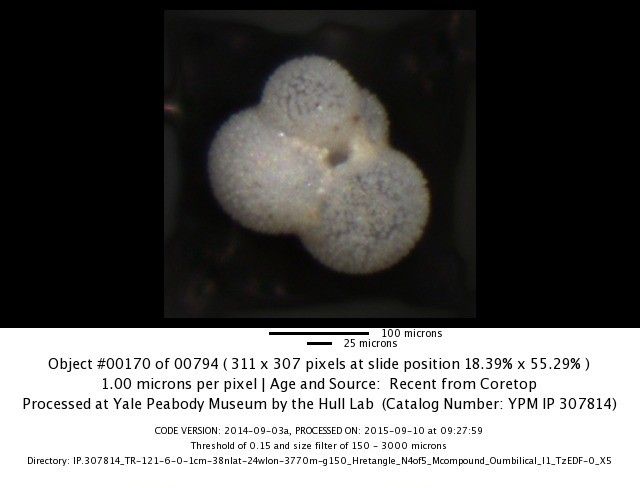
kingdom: Chromista
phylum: Foraminifera
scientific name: Foraminifera
